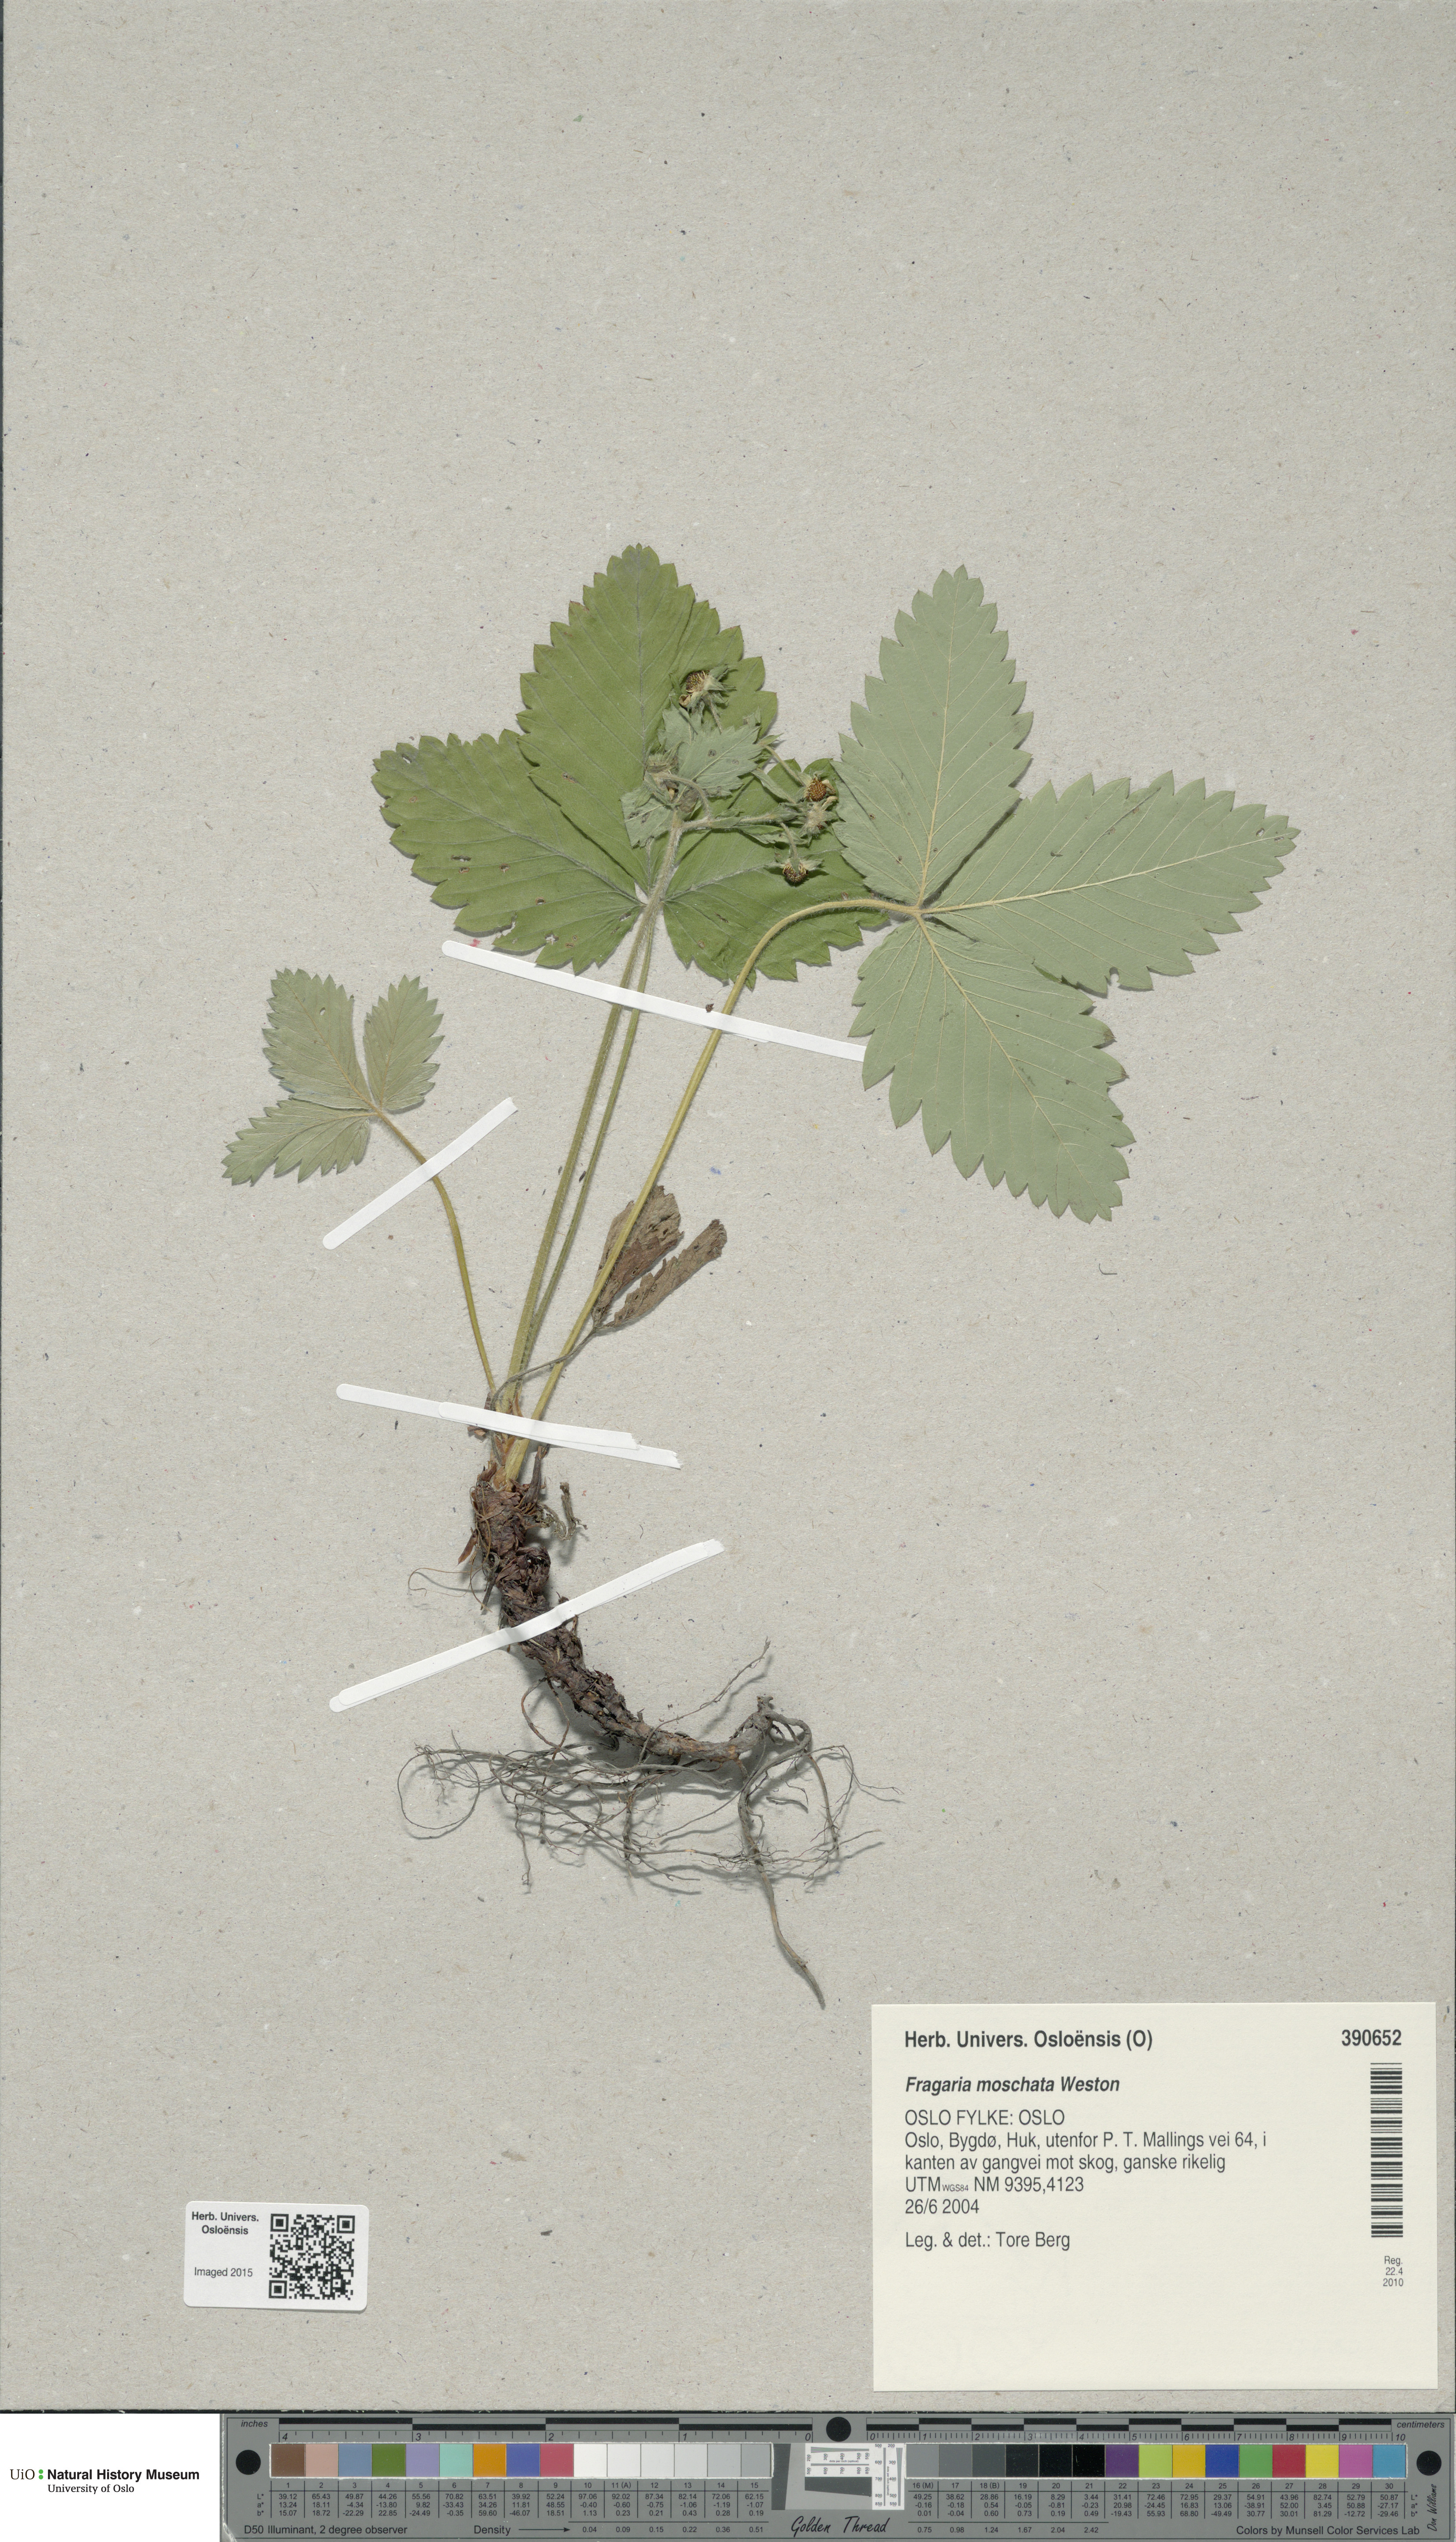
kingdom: Plantae
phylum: Tracheophyta
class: Magnoliopsida
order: Rosales
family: Rosaceae
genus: Fragaria
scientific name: Fragaria moschata
